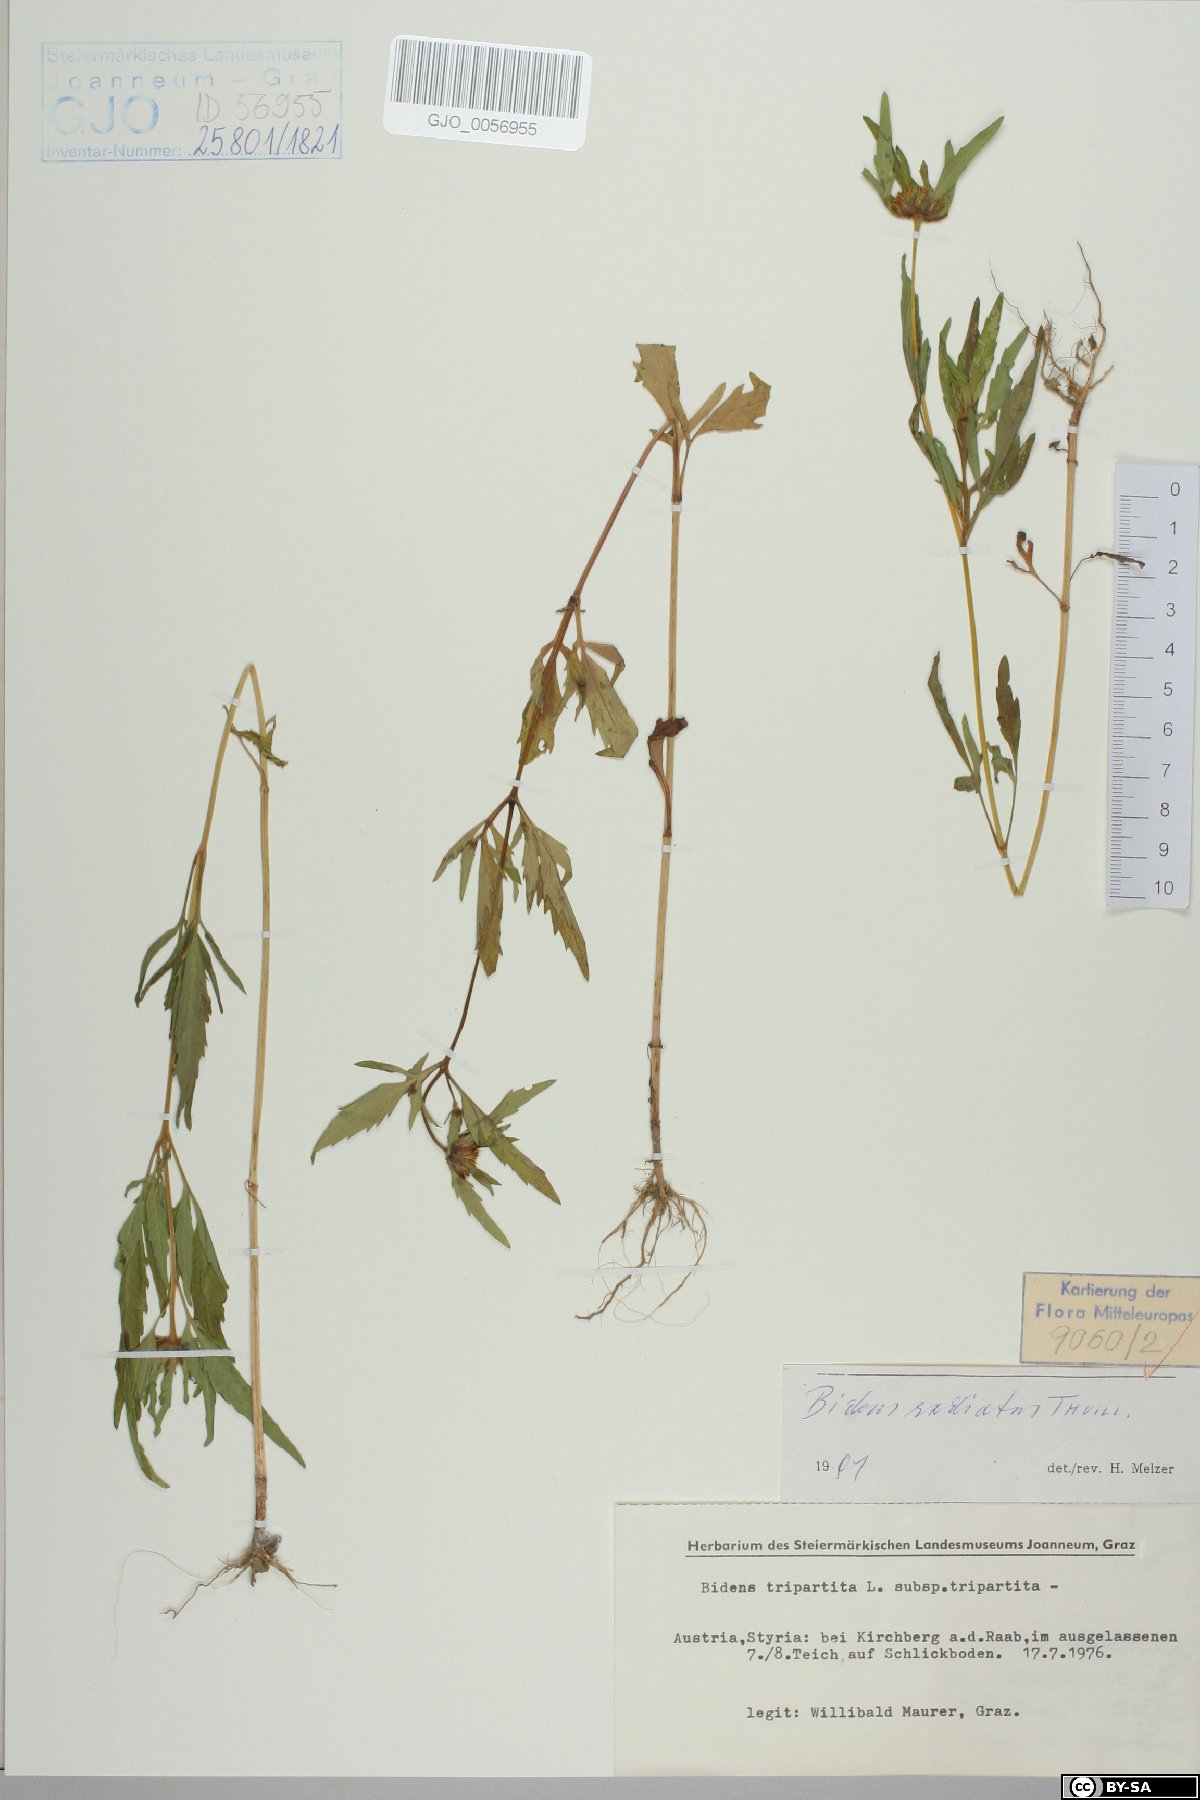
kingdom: Plantae
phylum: Tracheophyta
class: Magnoliopsida
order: Asterales
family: Asteraceae
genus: Bidens
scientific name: Bidens radiata
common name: Radiating bur-marigold
